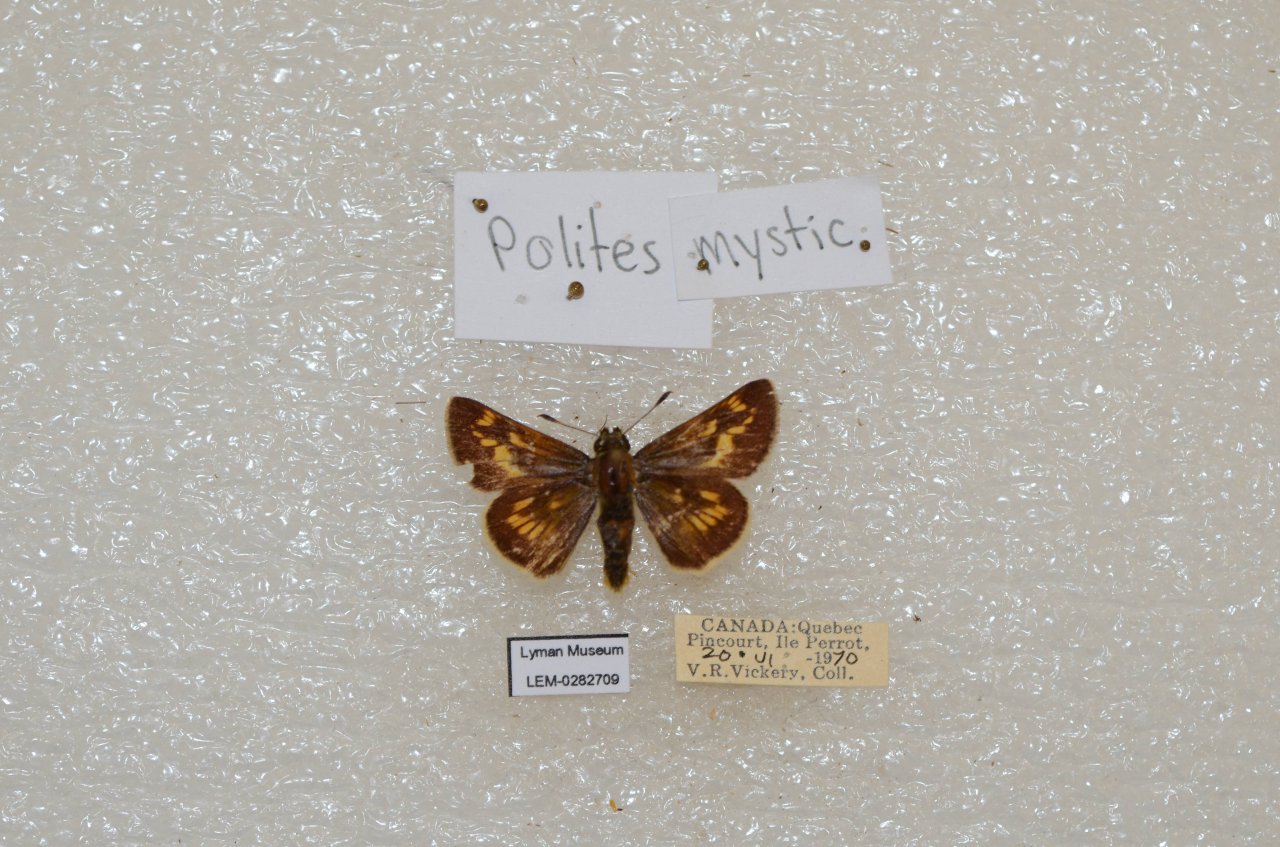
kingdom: Animalia
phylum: Arthropoda
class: Insecta
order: Lepidoptera
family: Hesperiidae
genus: Polites
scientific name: Polites
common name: Long Dash Skipper
